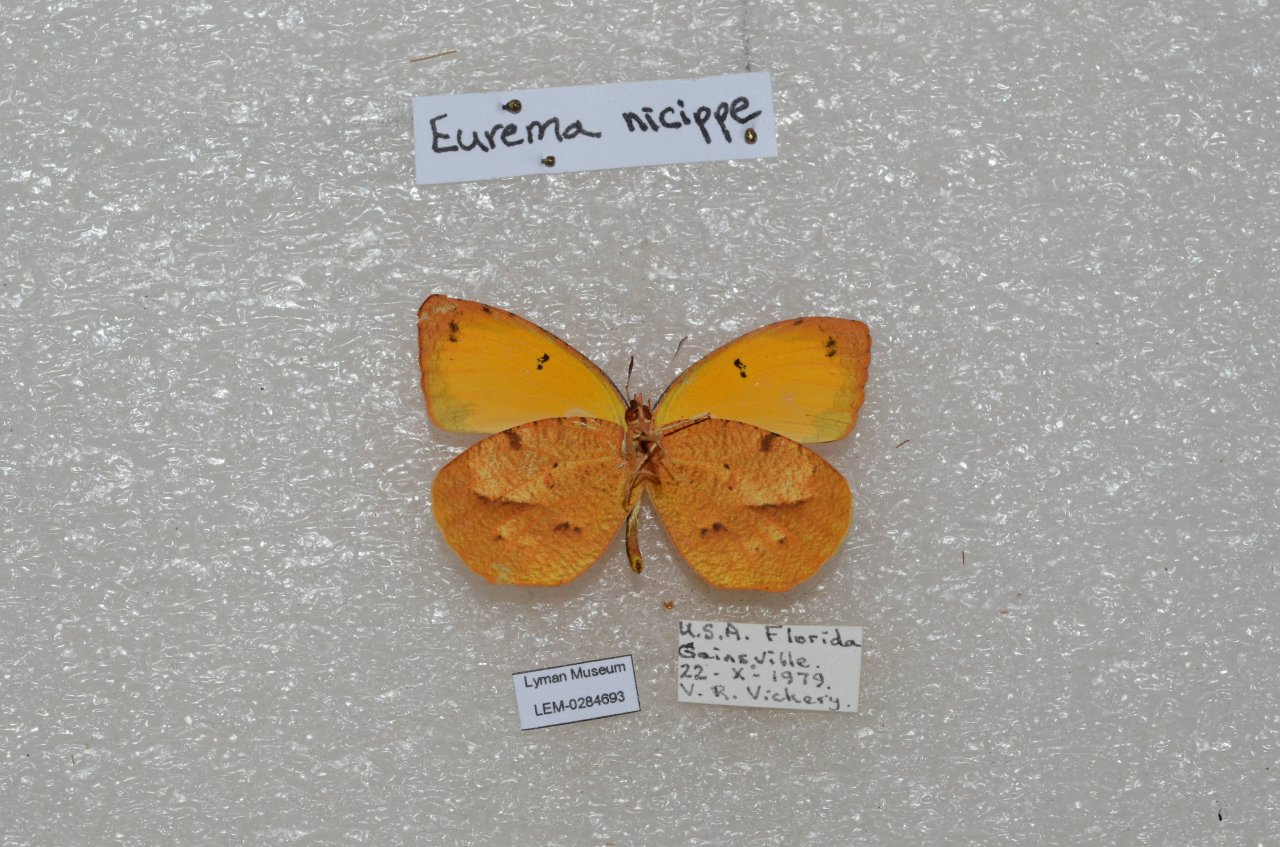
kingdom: Animalia
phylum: Arthropoda
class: Insecta
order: Lepidoptera
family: Pieridae
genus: Abaeis
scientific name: Abaeis nicippe
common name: Sleepy Orange
